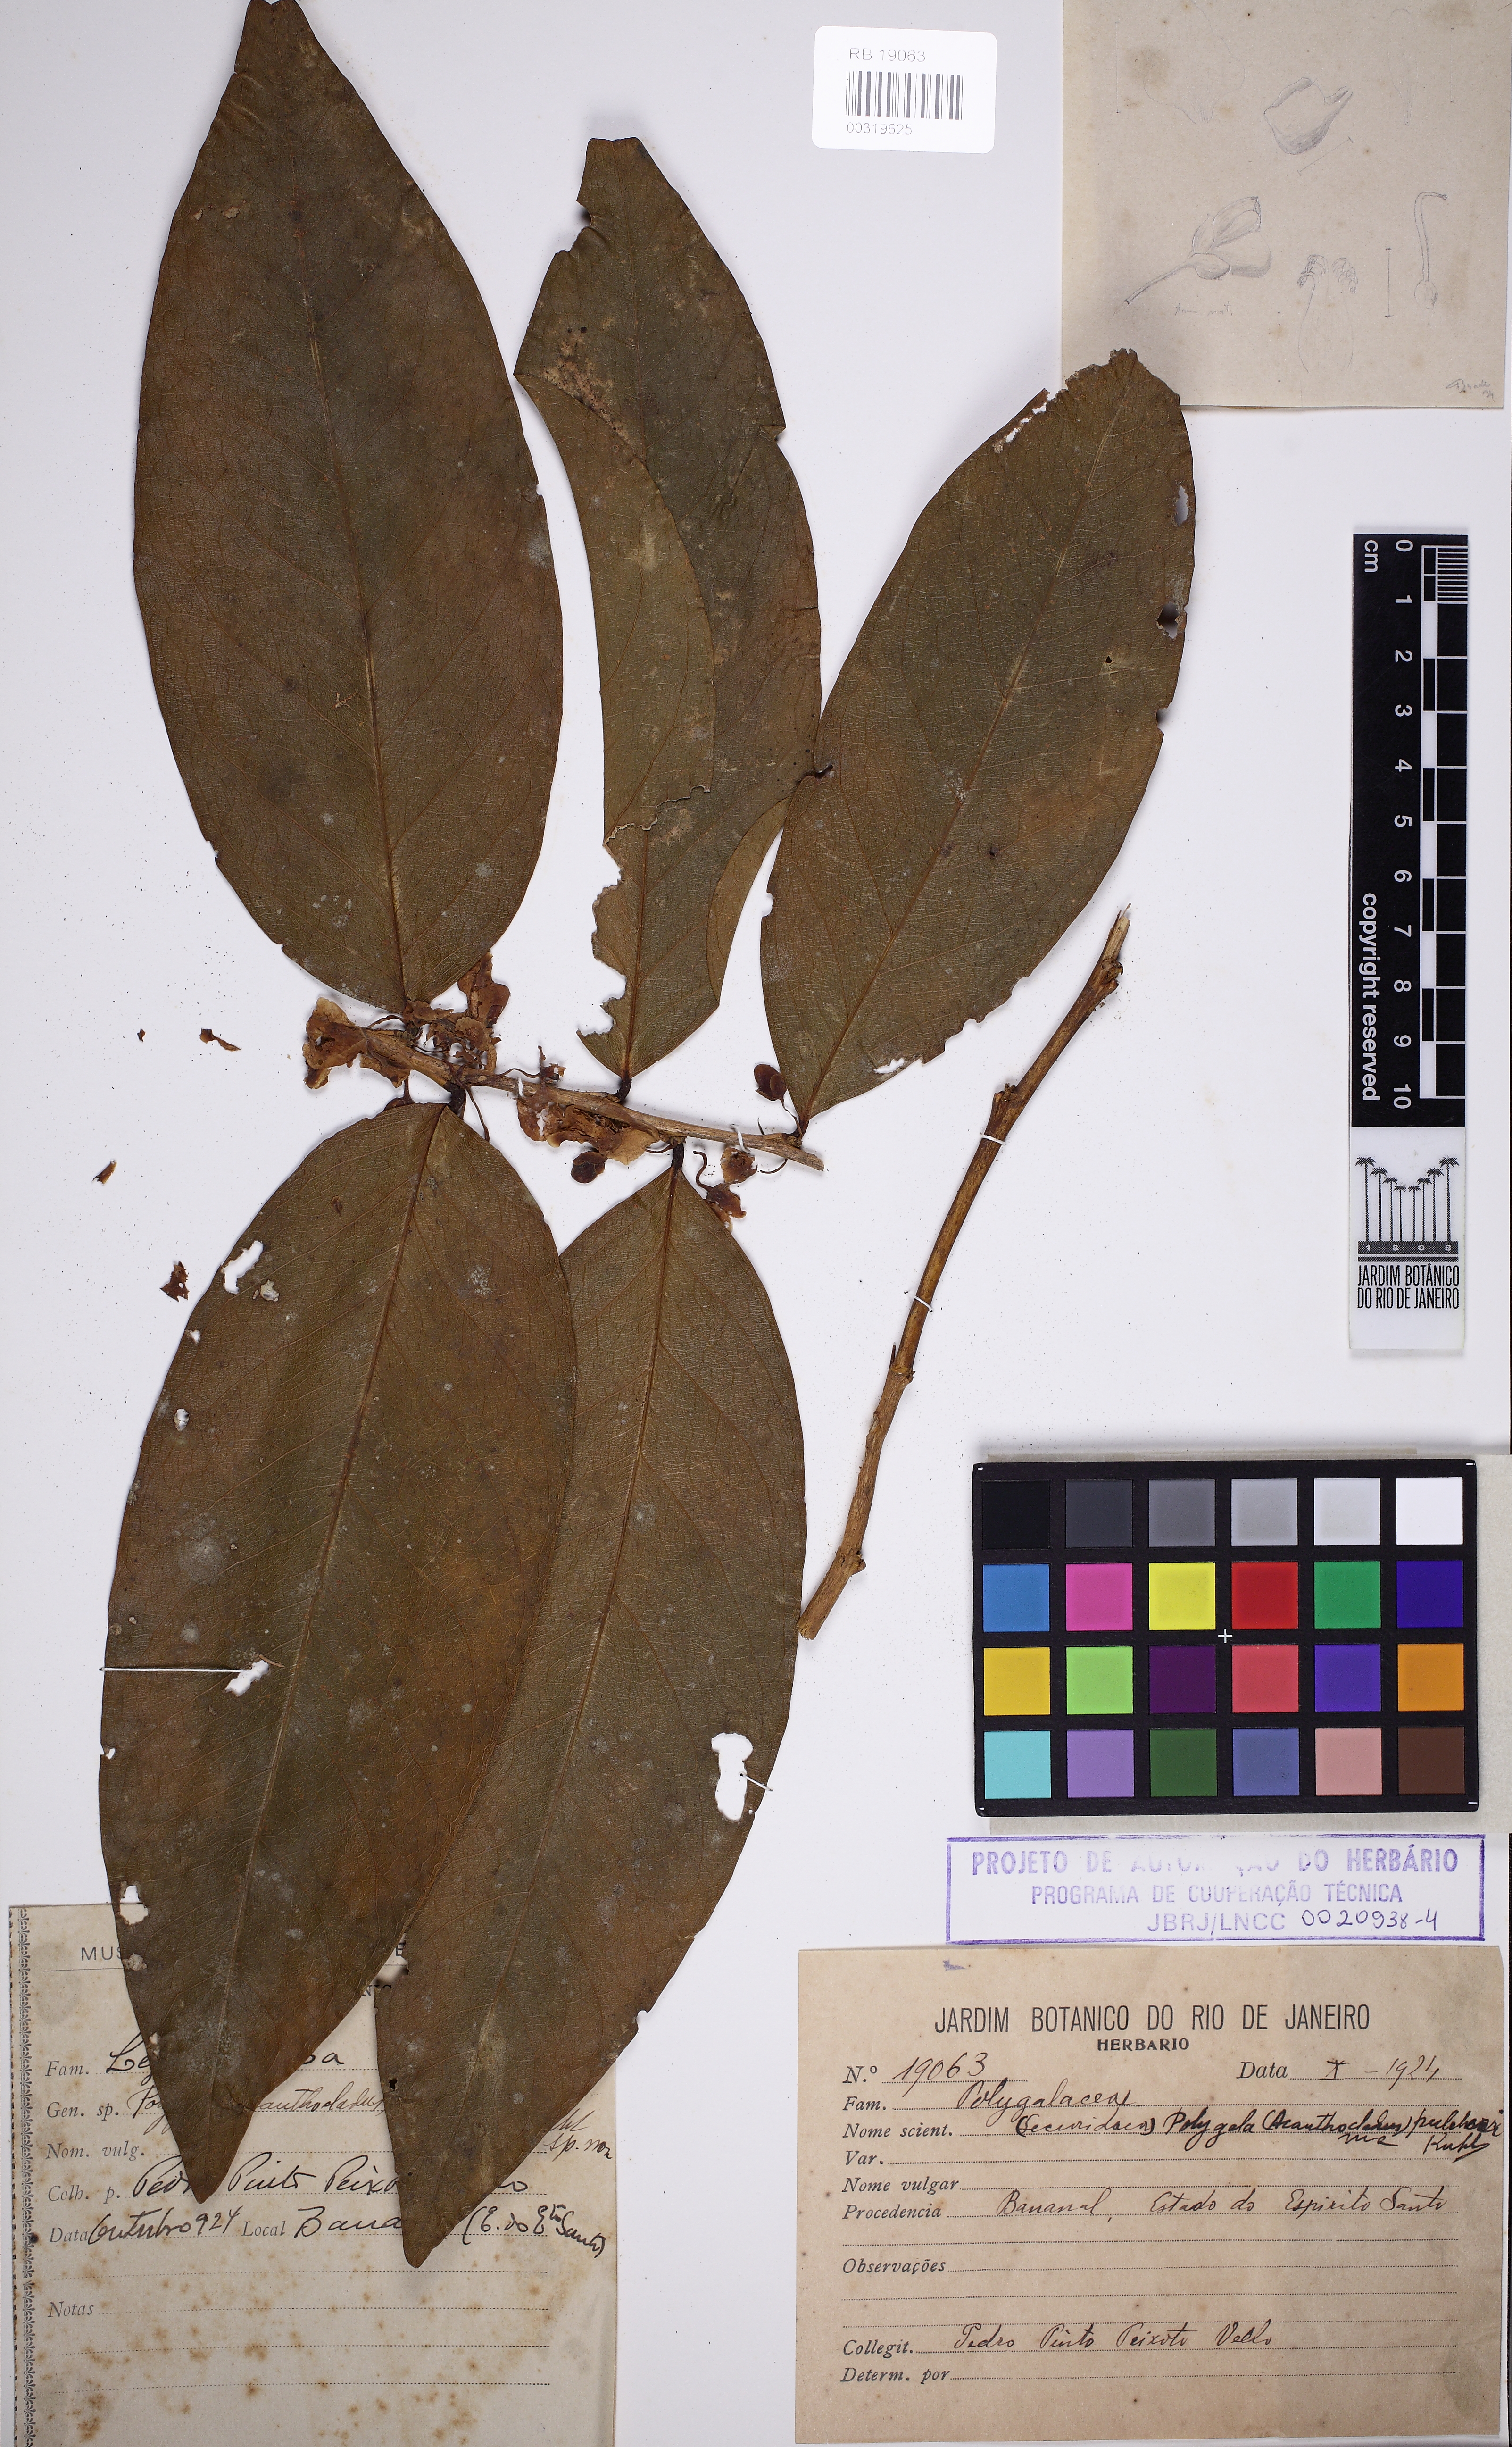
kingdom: Plantae
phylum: Tracheophyta
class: Magnoliopsida
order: Fabales
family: Polygalaceae
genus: Acanthocladus
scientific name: Acanthocladus pulcherrimus
